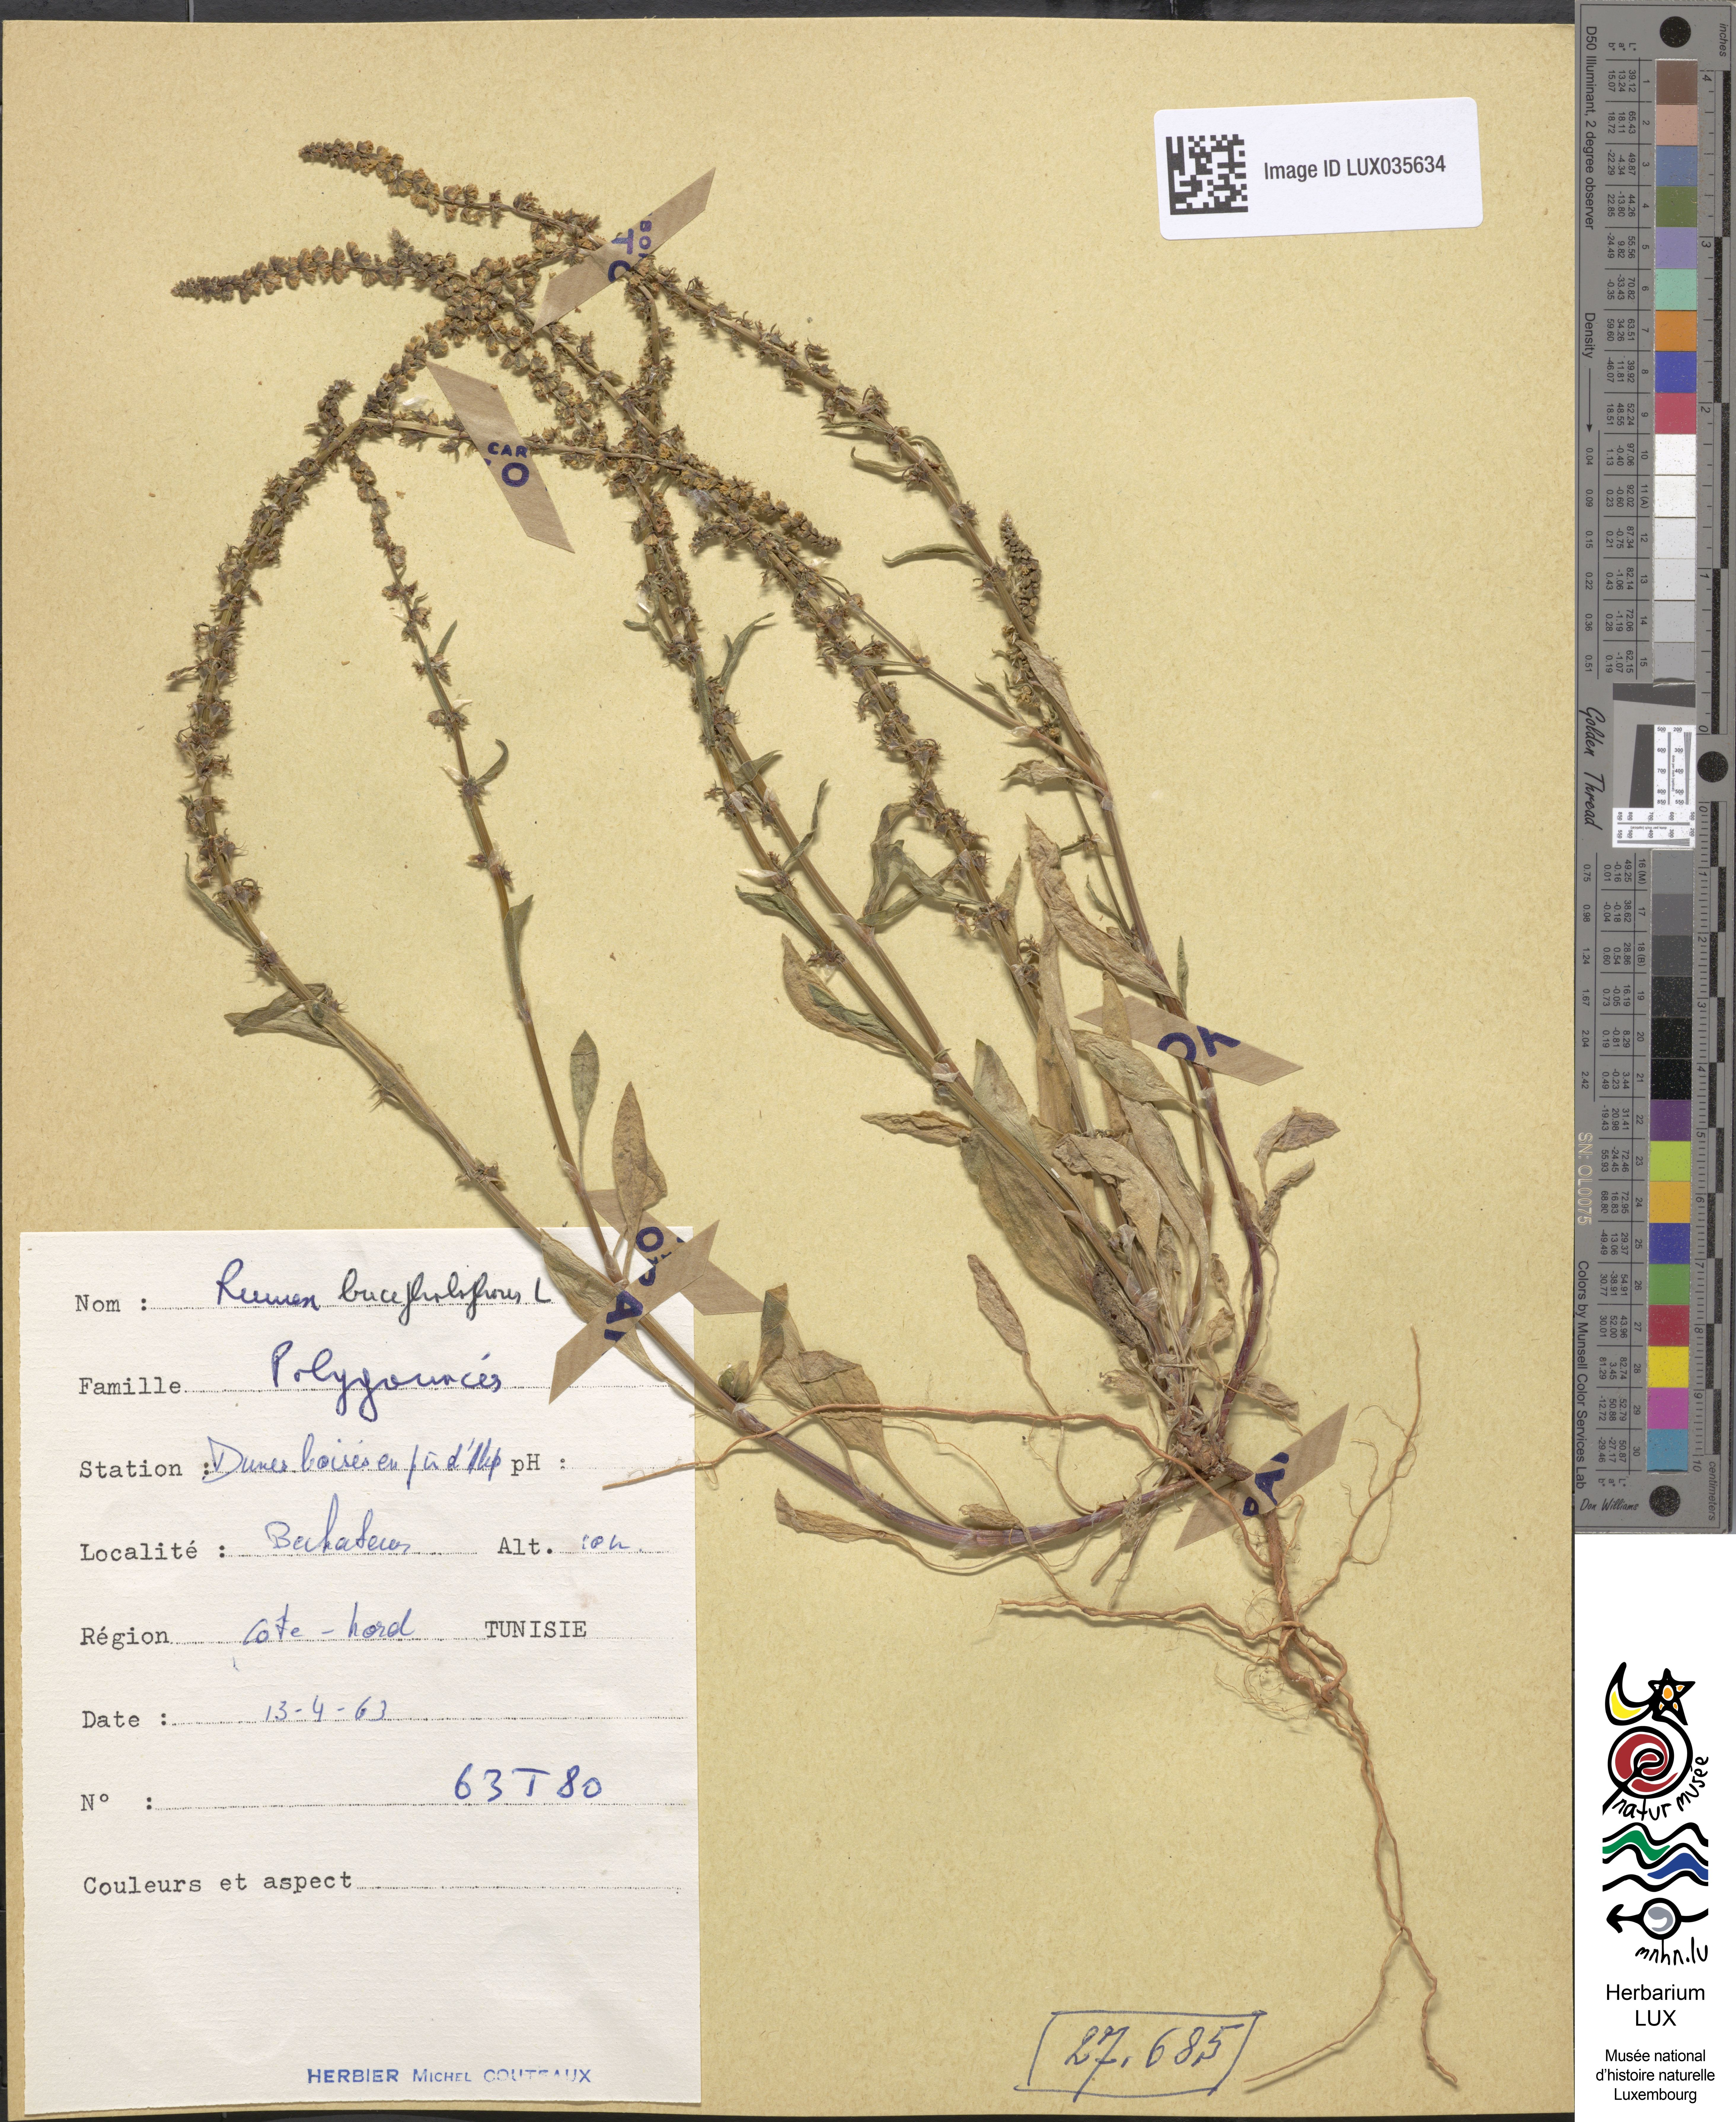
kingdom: Plantae
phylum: Tracheophyta
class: Magnoliopsida
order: Caryophyllales
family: Polygonaceae
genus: Rumex
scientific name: Rumex bucephalophorus
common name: Red dock
